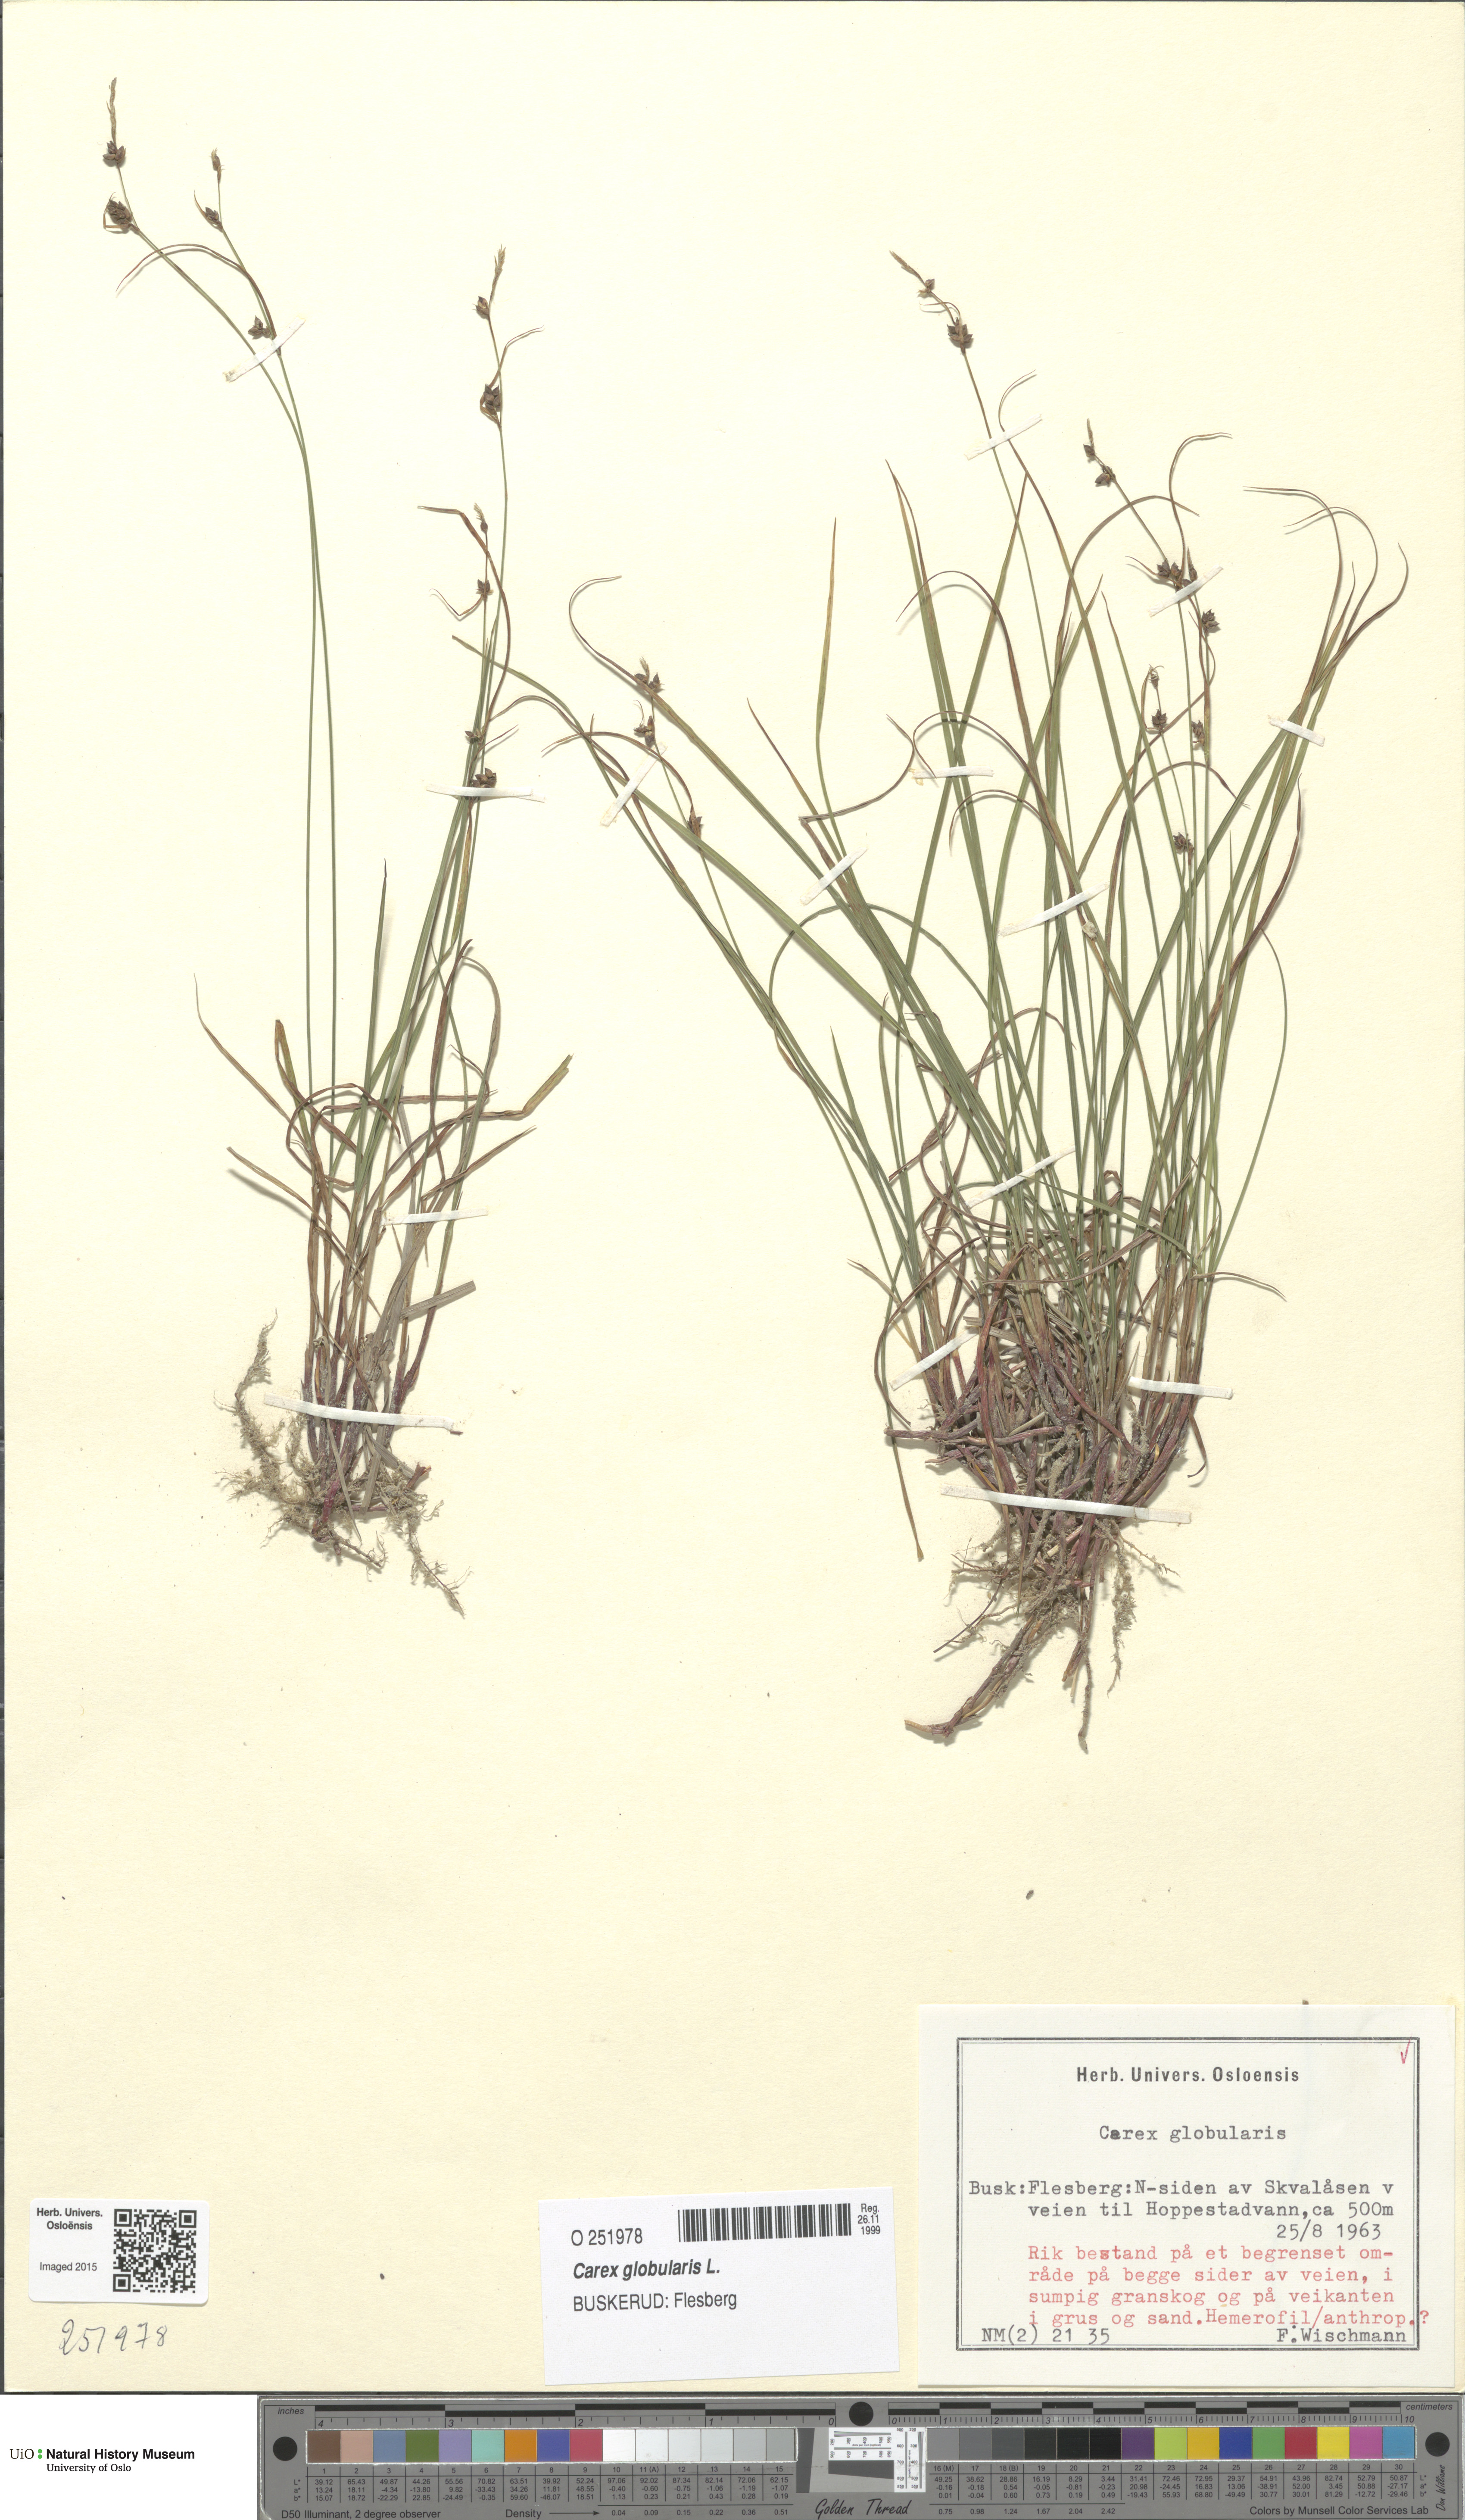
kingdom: Plantae
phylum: Tracheophyta
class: Liliopsida
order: Poales
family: Cyperaceae
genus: Carex
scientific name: Carex globularis
